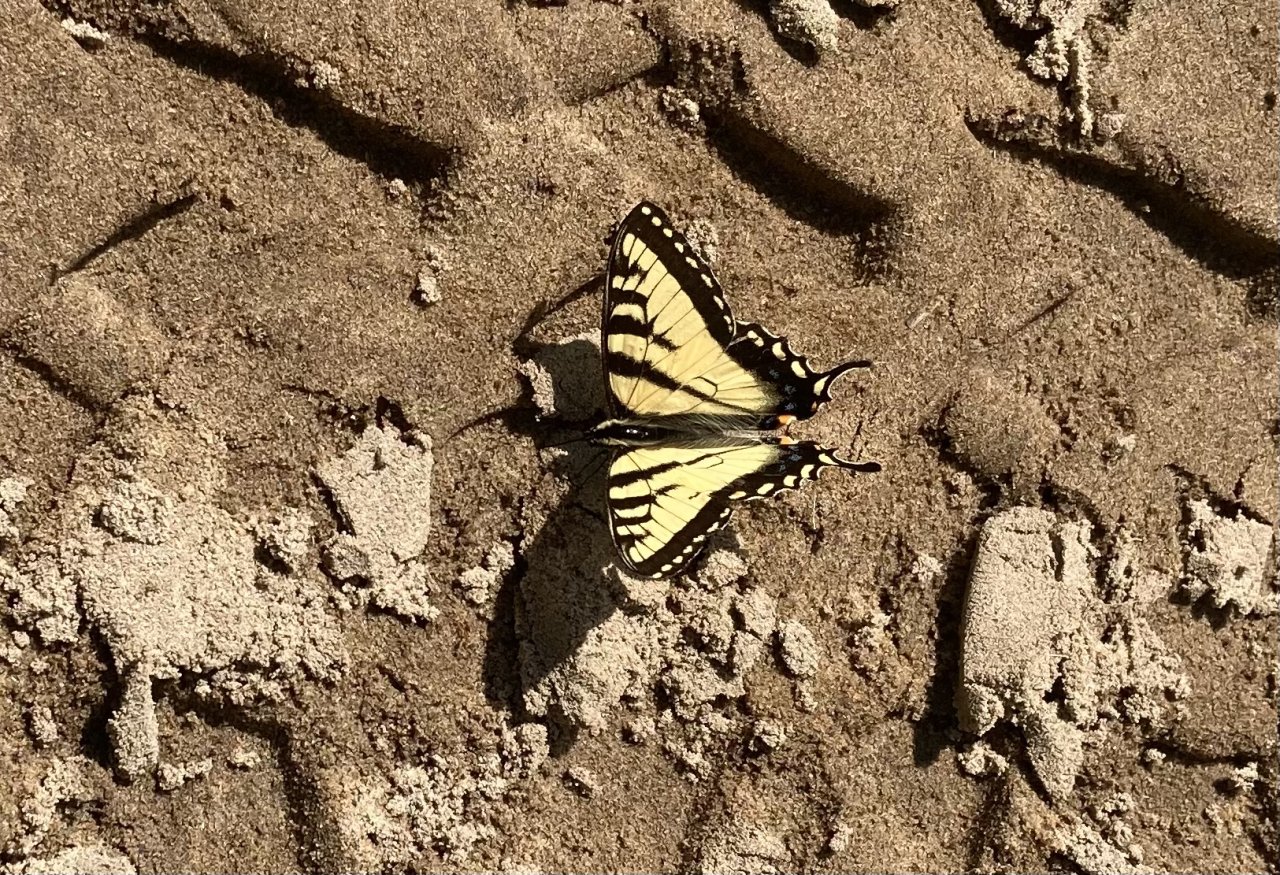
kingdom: Animalia
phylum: Arthropoda
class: Insecta
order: Lepidoptera
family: Papilionidae
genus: Pterourus
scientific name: Pterourus canadensis
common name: Canadian Tiger Swallowtail
